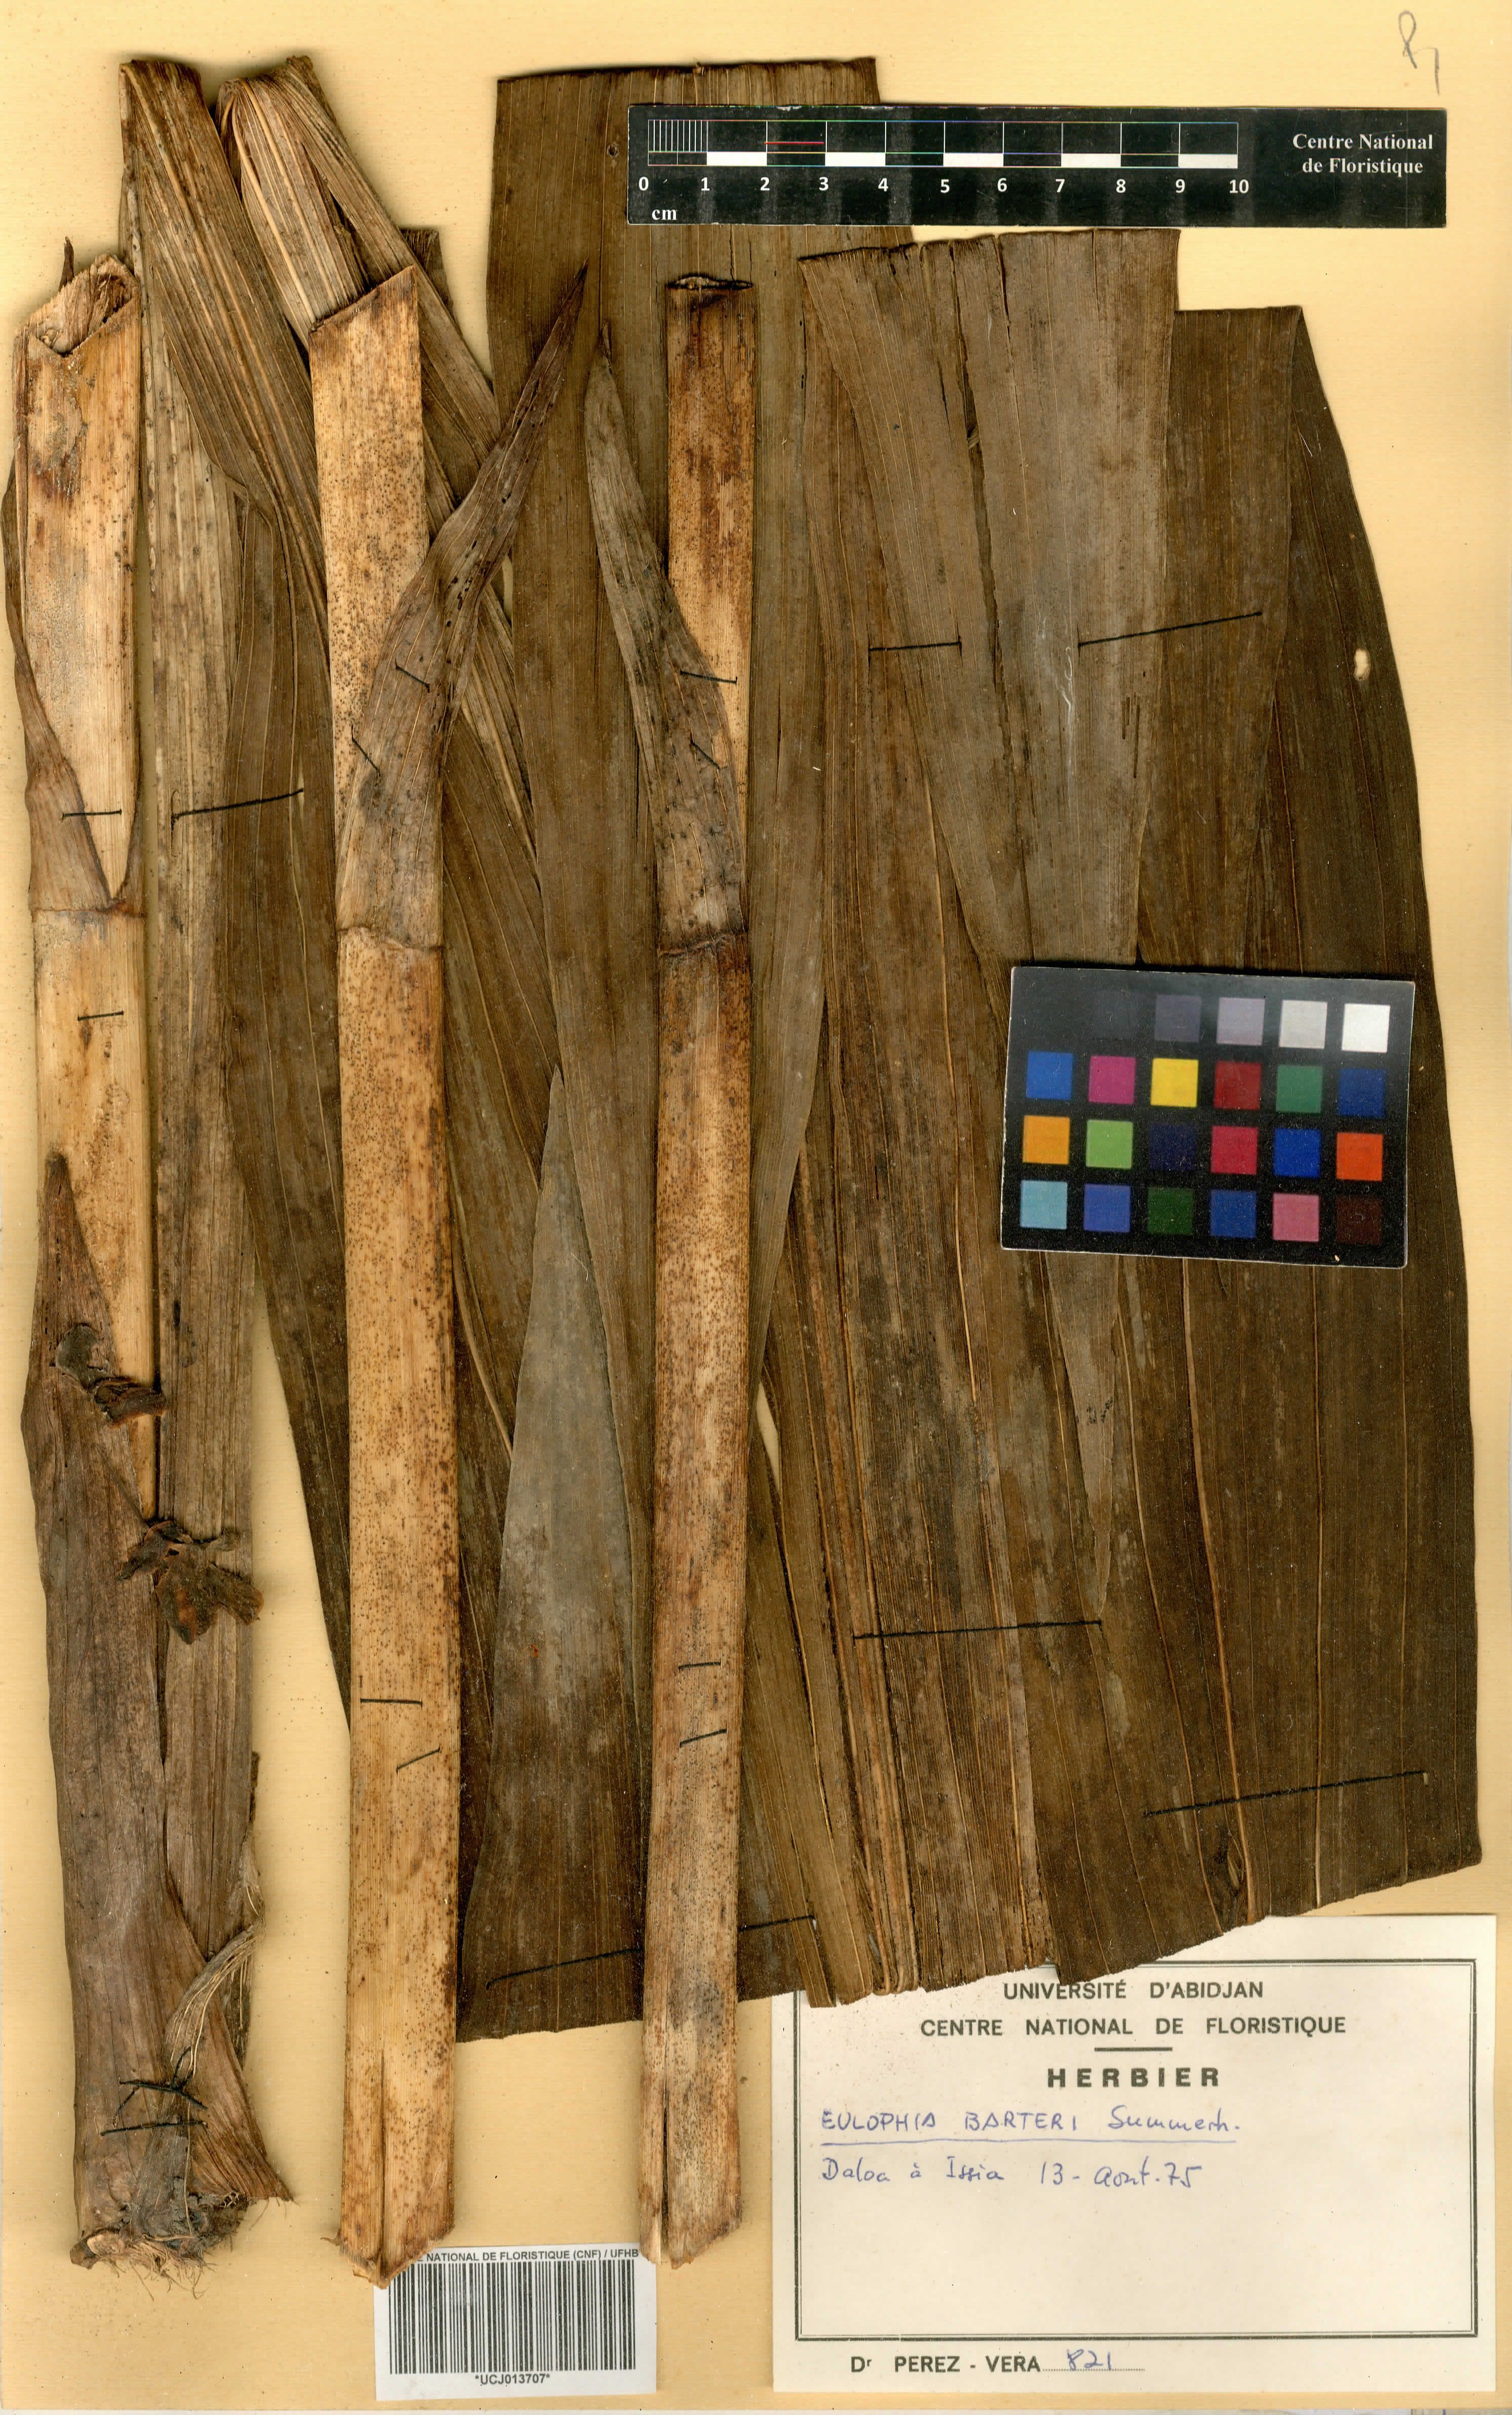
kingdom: Plantae
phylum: Tracheophyta
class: Liliopsida
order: Asparagales
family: Orchidaceae
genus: Eulophia
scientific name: Eulophia barteri
